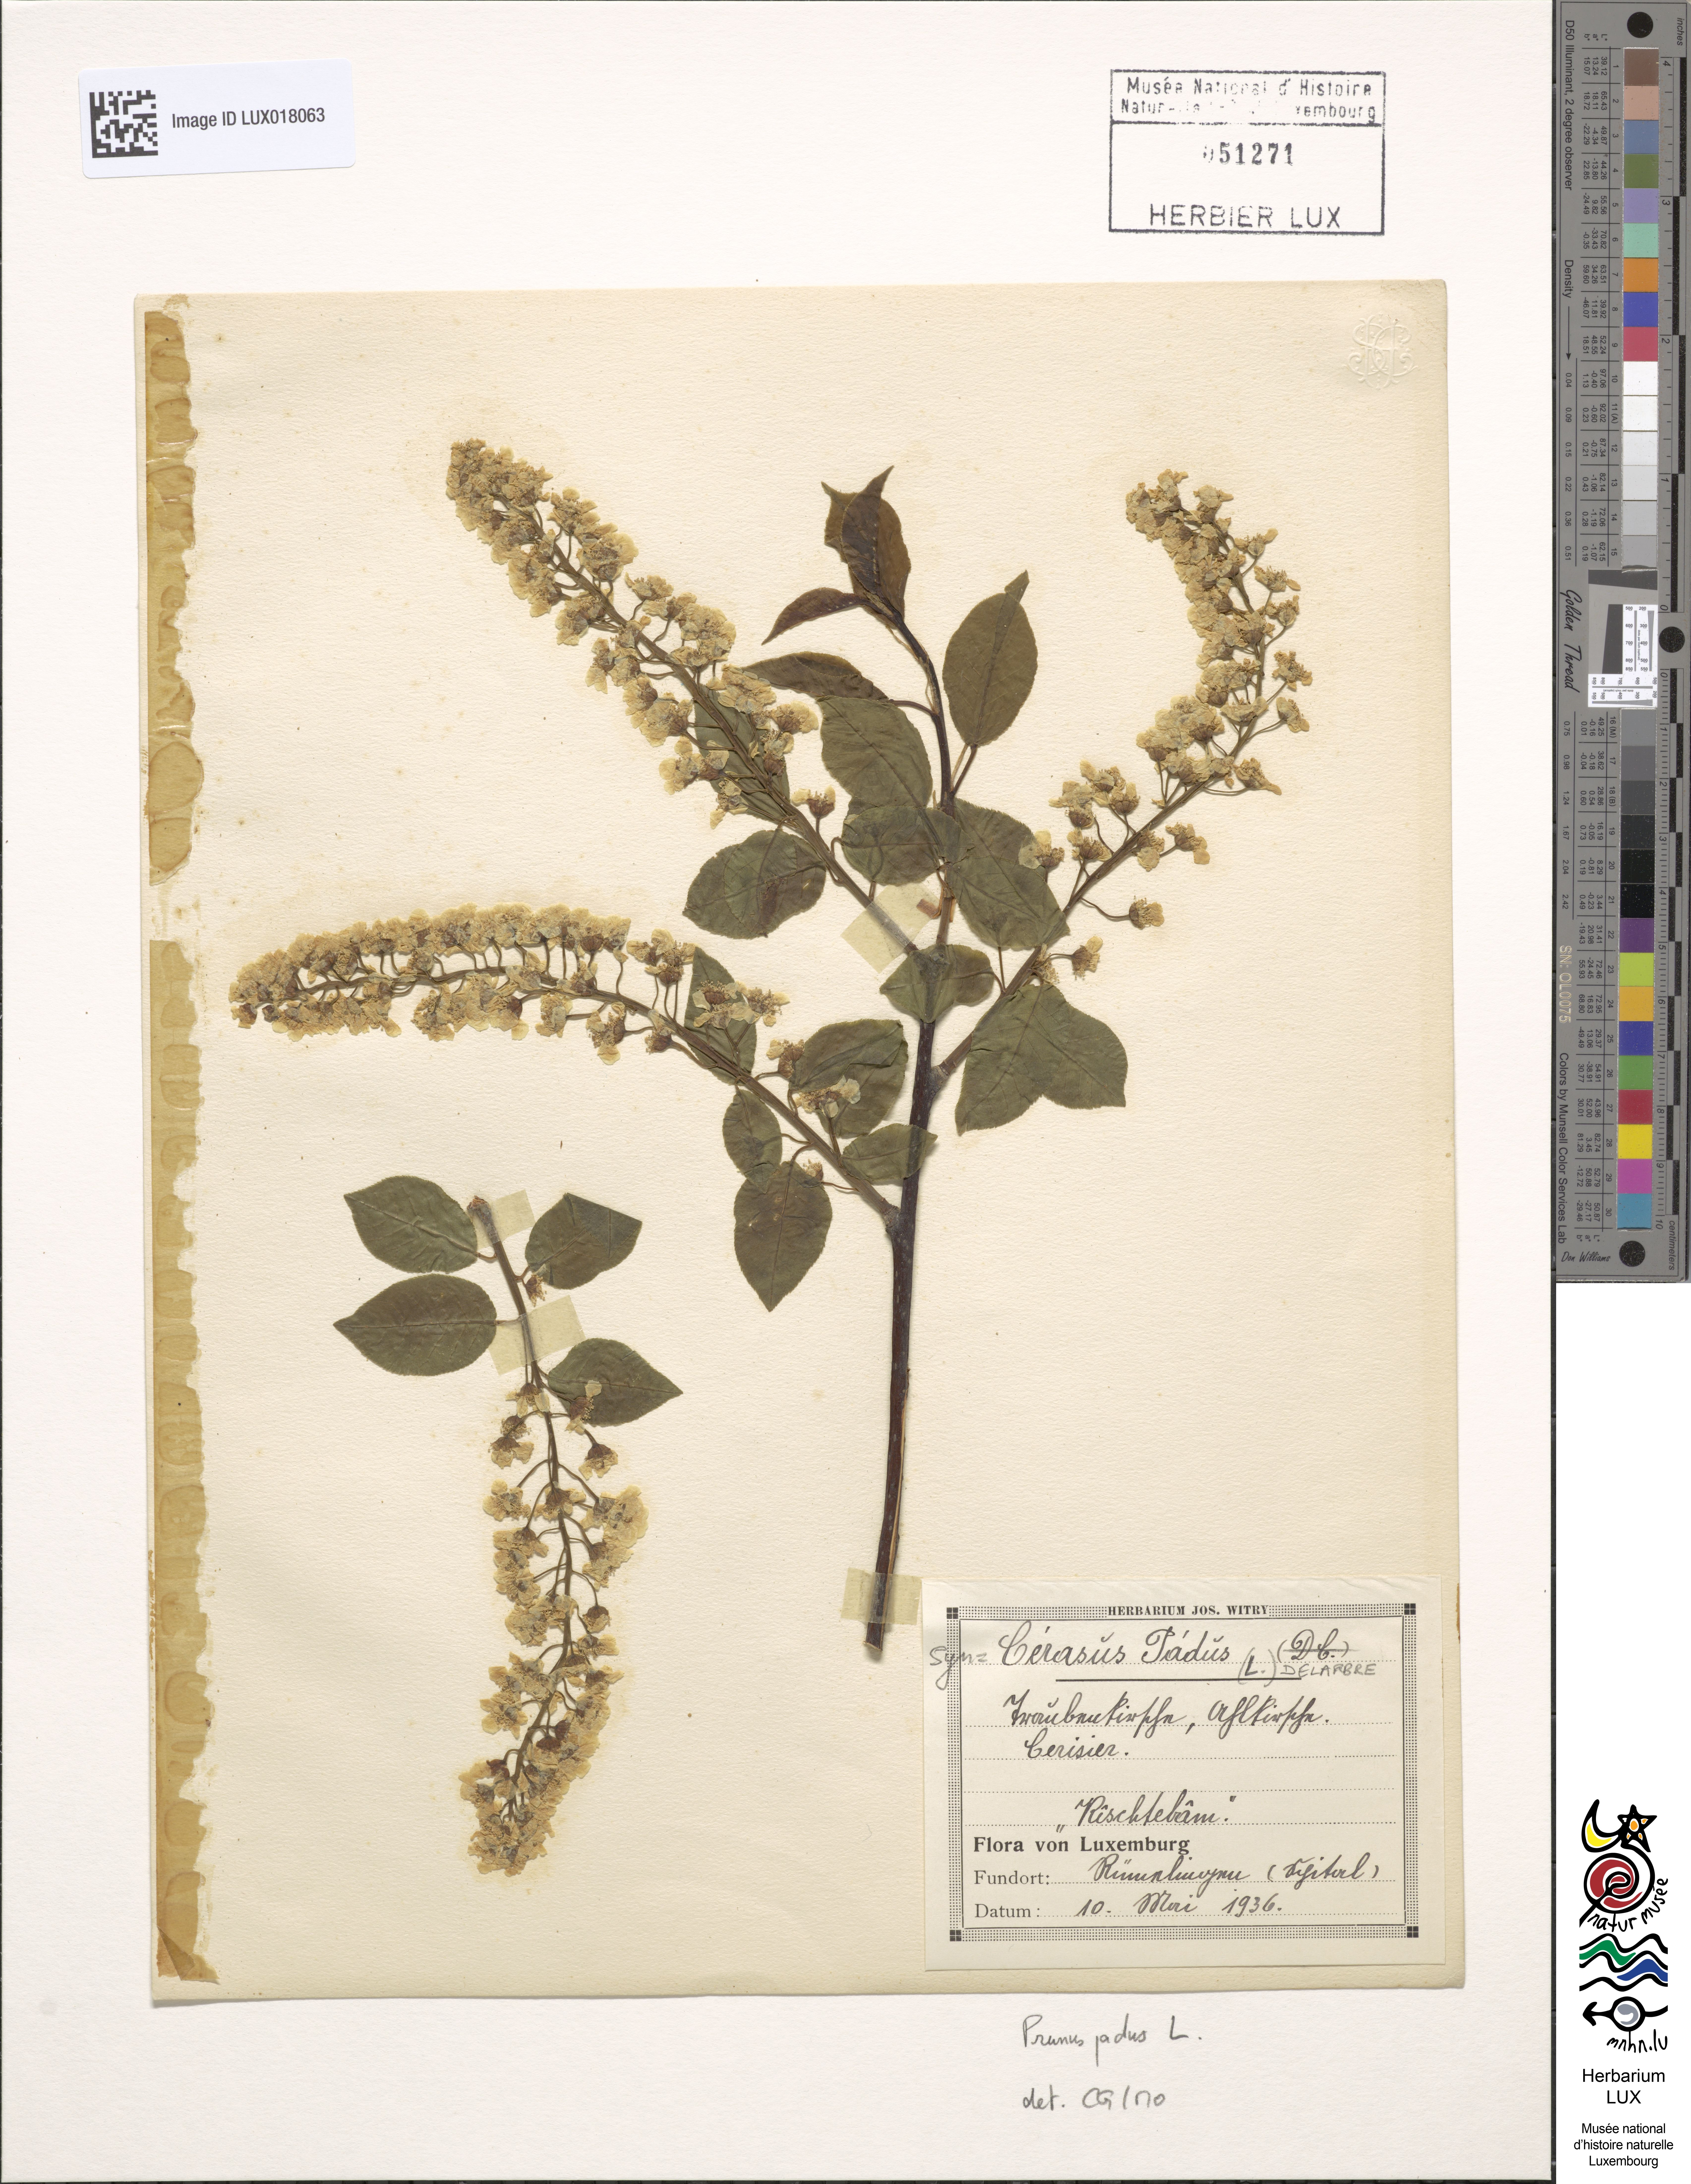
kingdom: Plantae
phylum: Tracheophyta
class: Magnoliopsida
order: Rosales
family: Rosaceae
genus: Prunus
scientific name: Prunus padus
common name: Bird cherry
